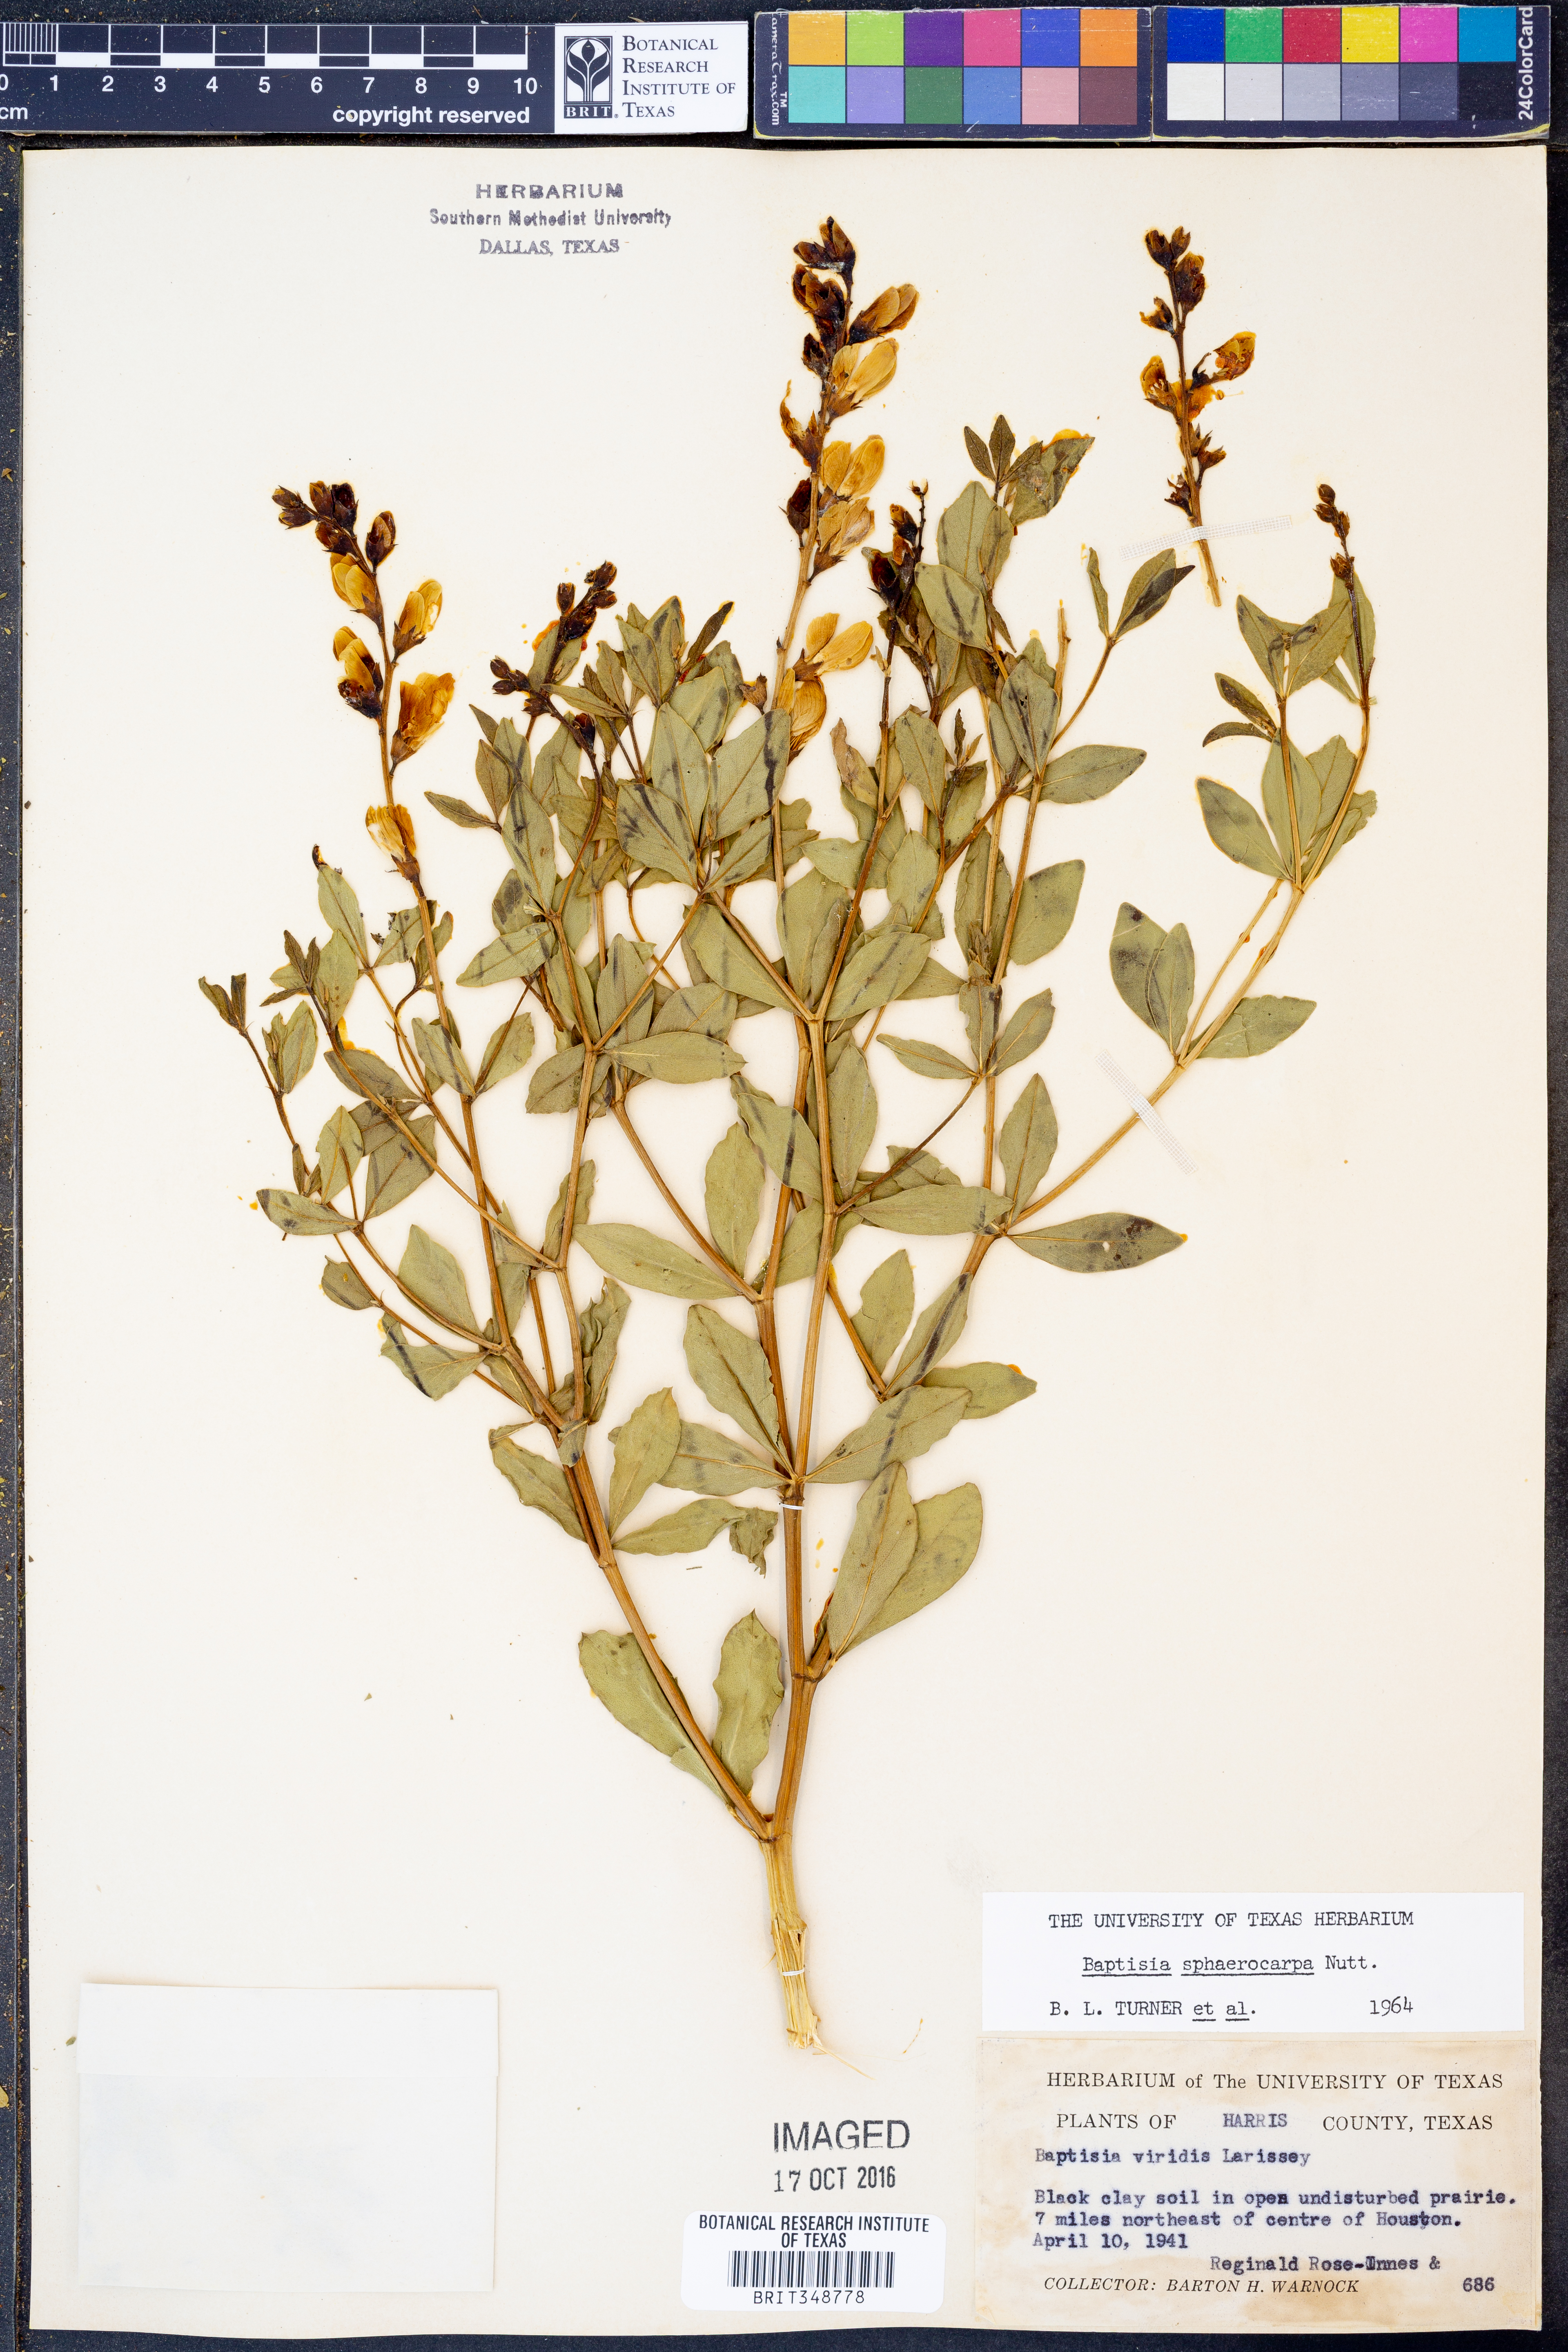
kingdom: Plantae
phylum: Tracheophyta
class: Magnoliopsida
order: Fabales
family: Fabaceae
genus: Baptisia
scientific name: Baptisia sphaerocarpa
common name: Round wild indigo
